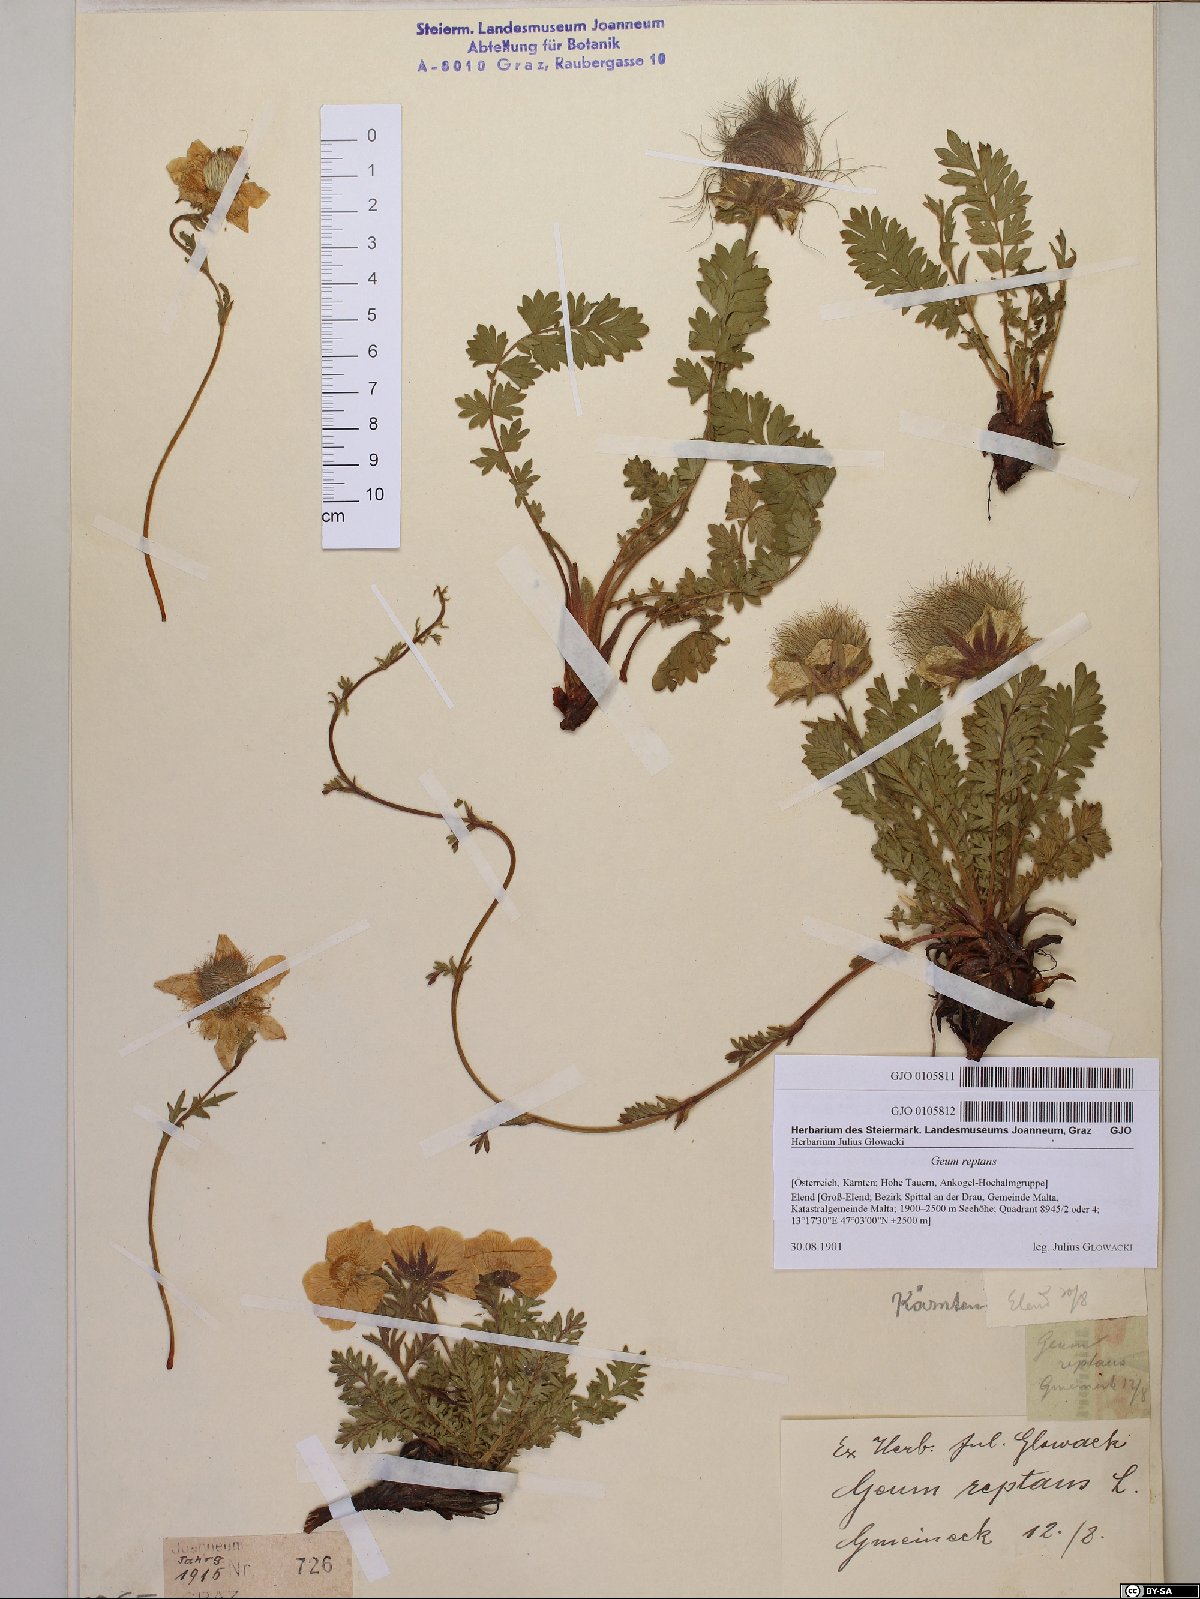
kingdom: Plantae
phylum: Tracheophyta
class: Magnoliopsida
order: Rosales
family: Rosaceae
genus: Geum
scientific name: Geum reptans
